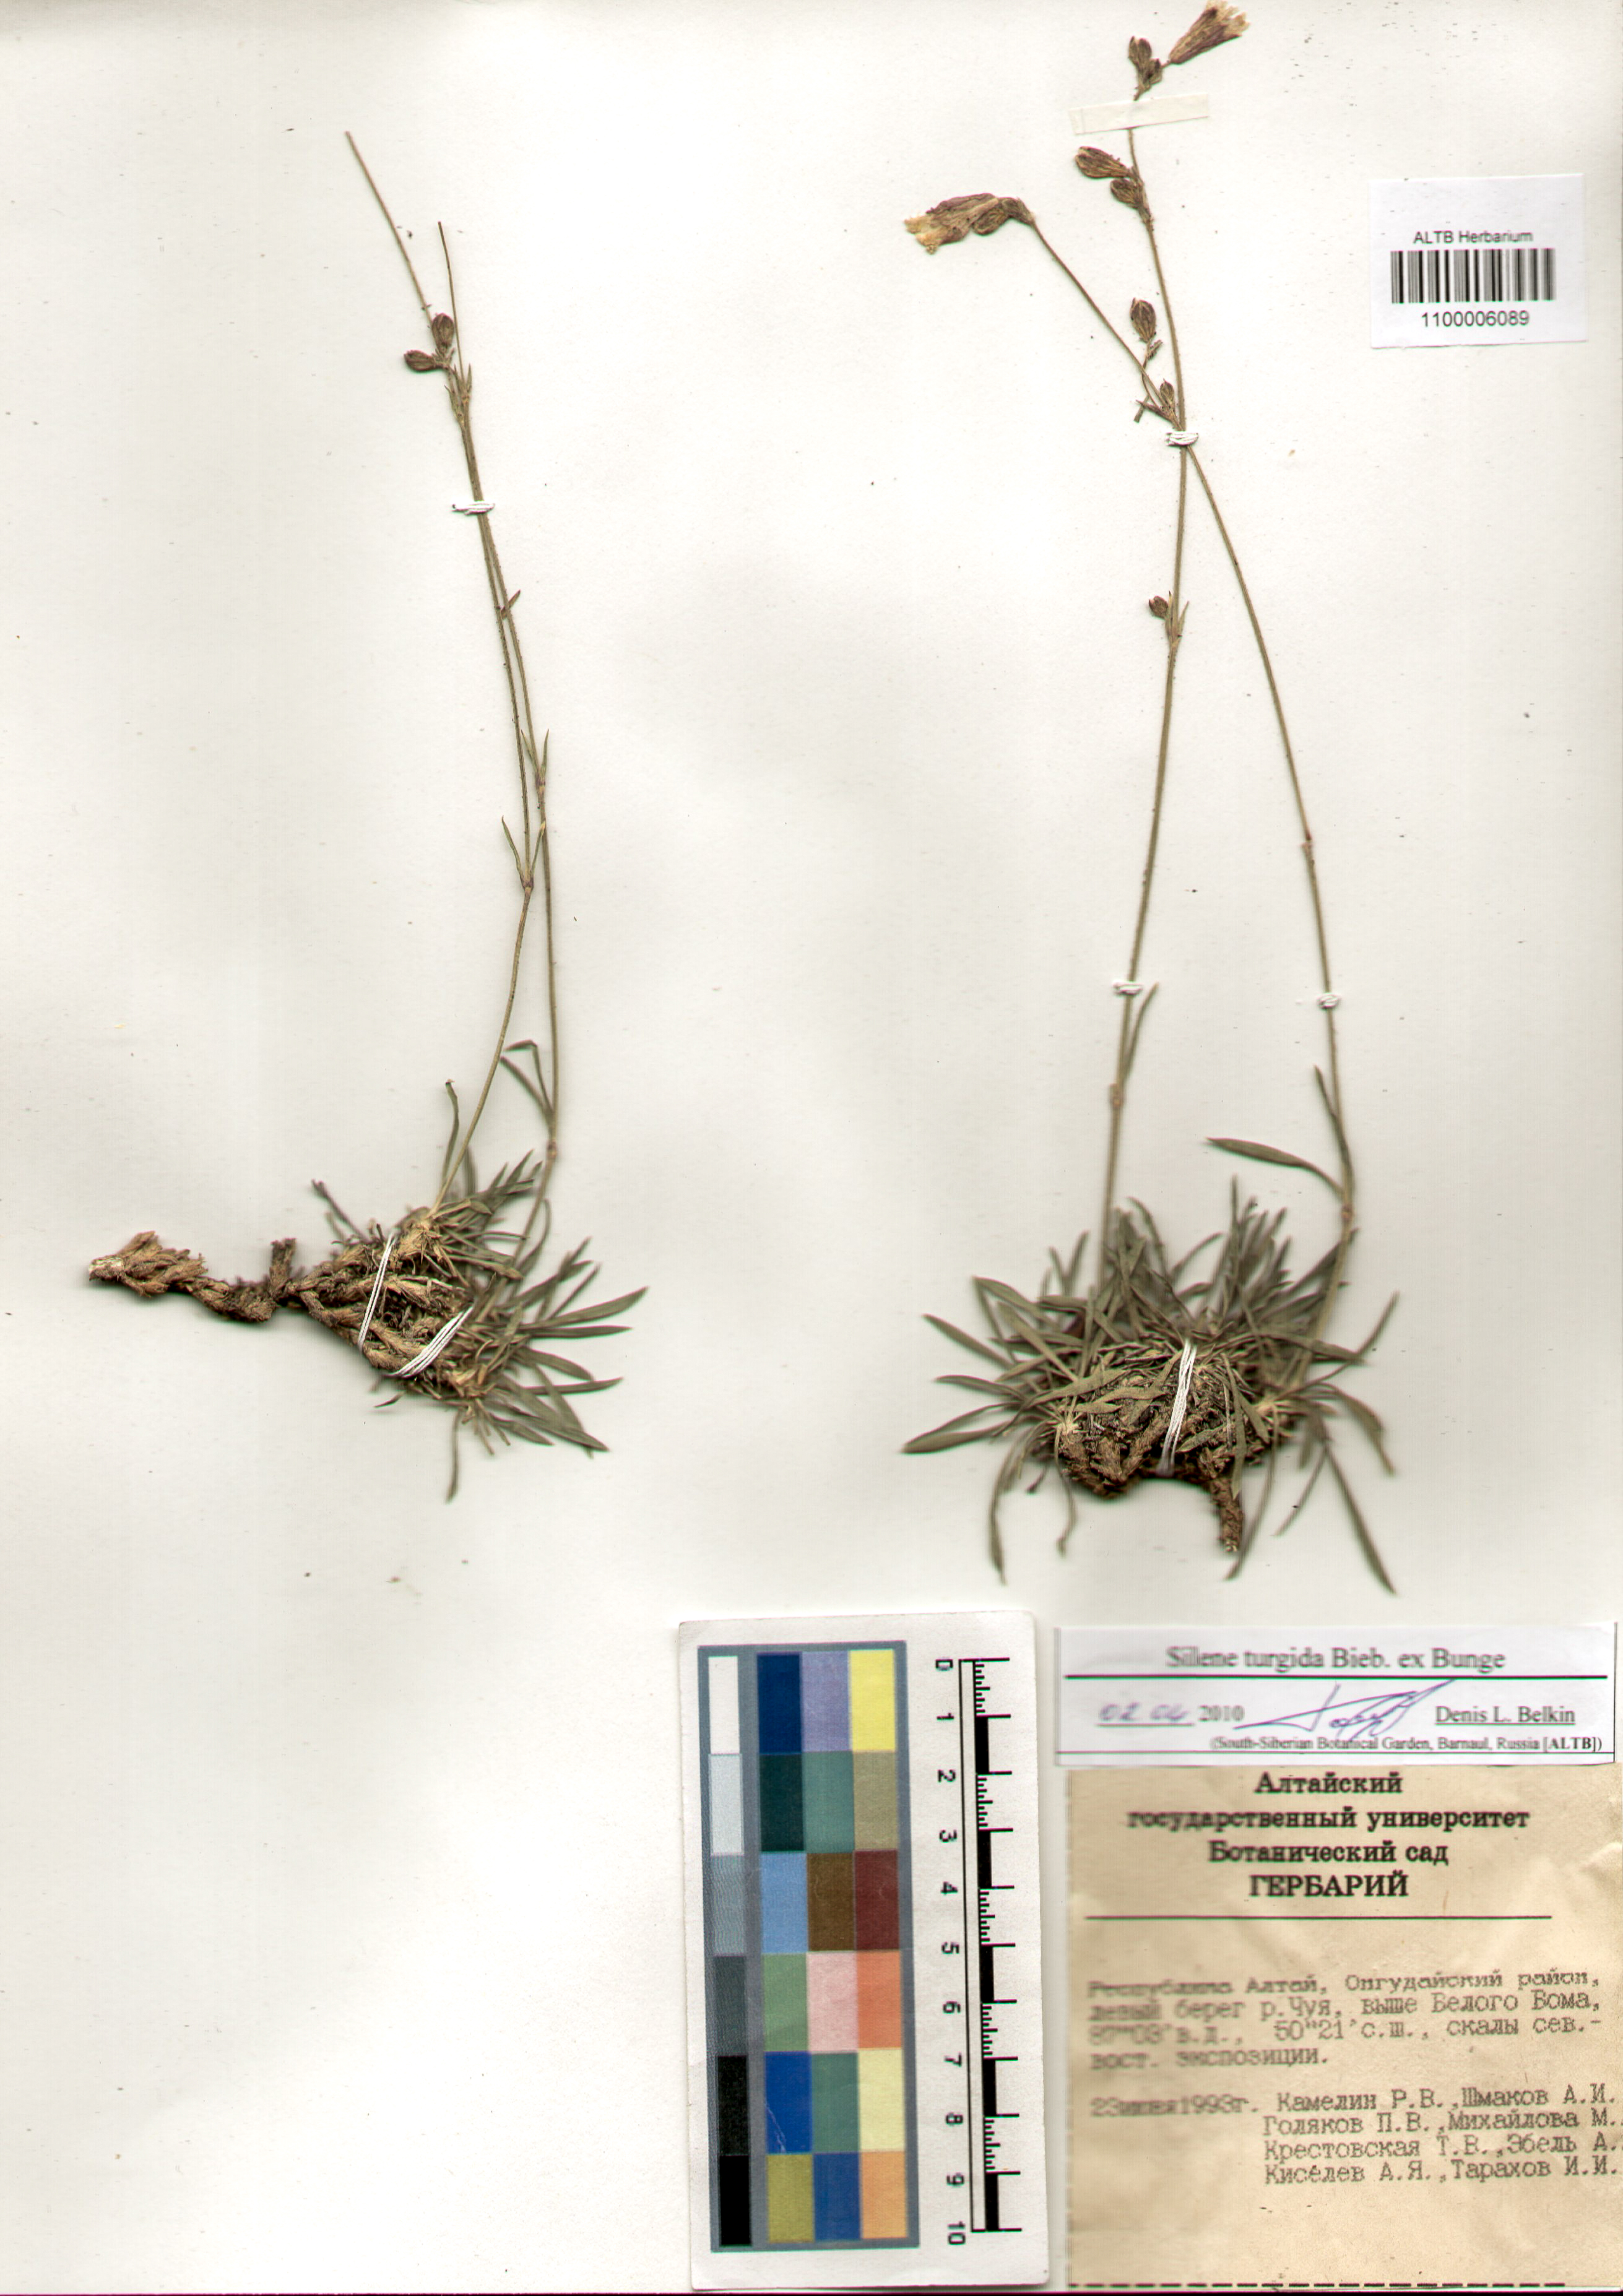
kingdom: Plantae
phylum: Tracheophyta
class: Magnoliopsida
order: Caryophyllales
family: Caryophyllaceae
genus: Silene
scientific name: Silene turgida
